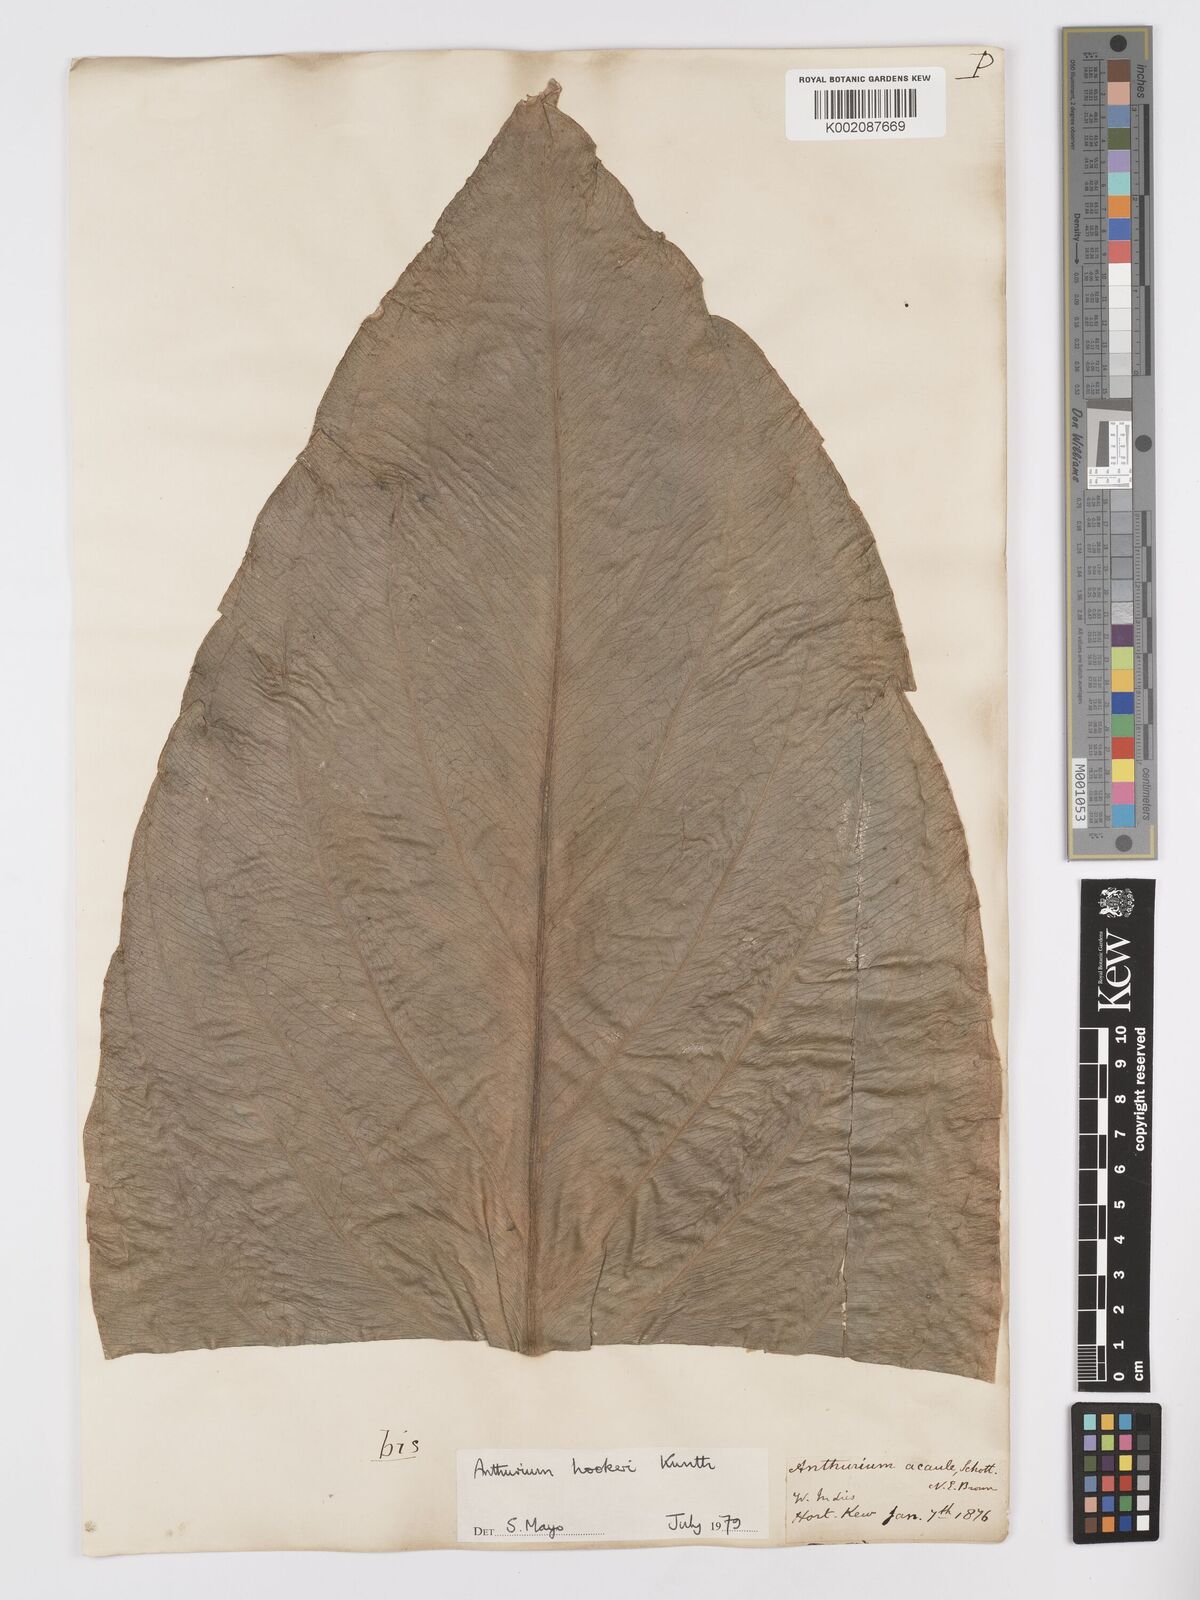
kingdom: Plantae
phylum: Tracheophyta
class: Liliopsida
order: Alismatales
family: Araceae
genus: Anthurium
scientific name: Anthurium hookeri
